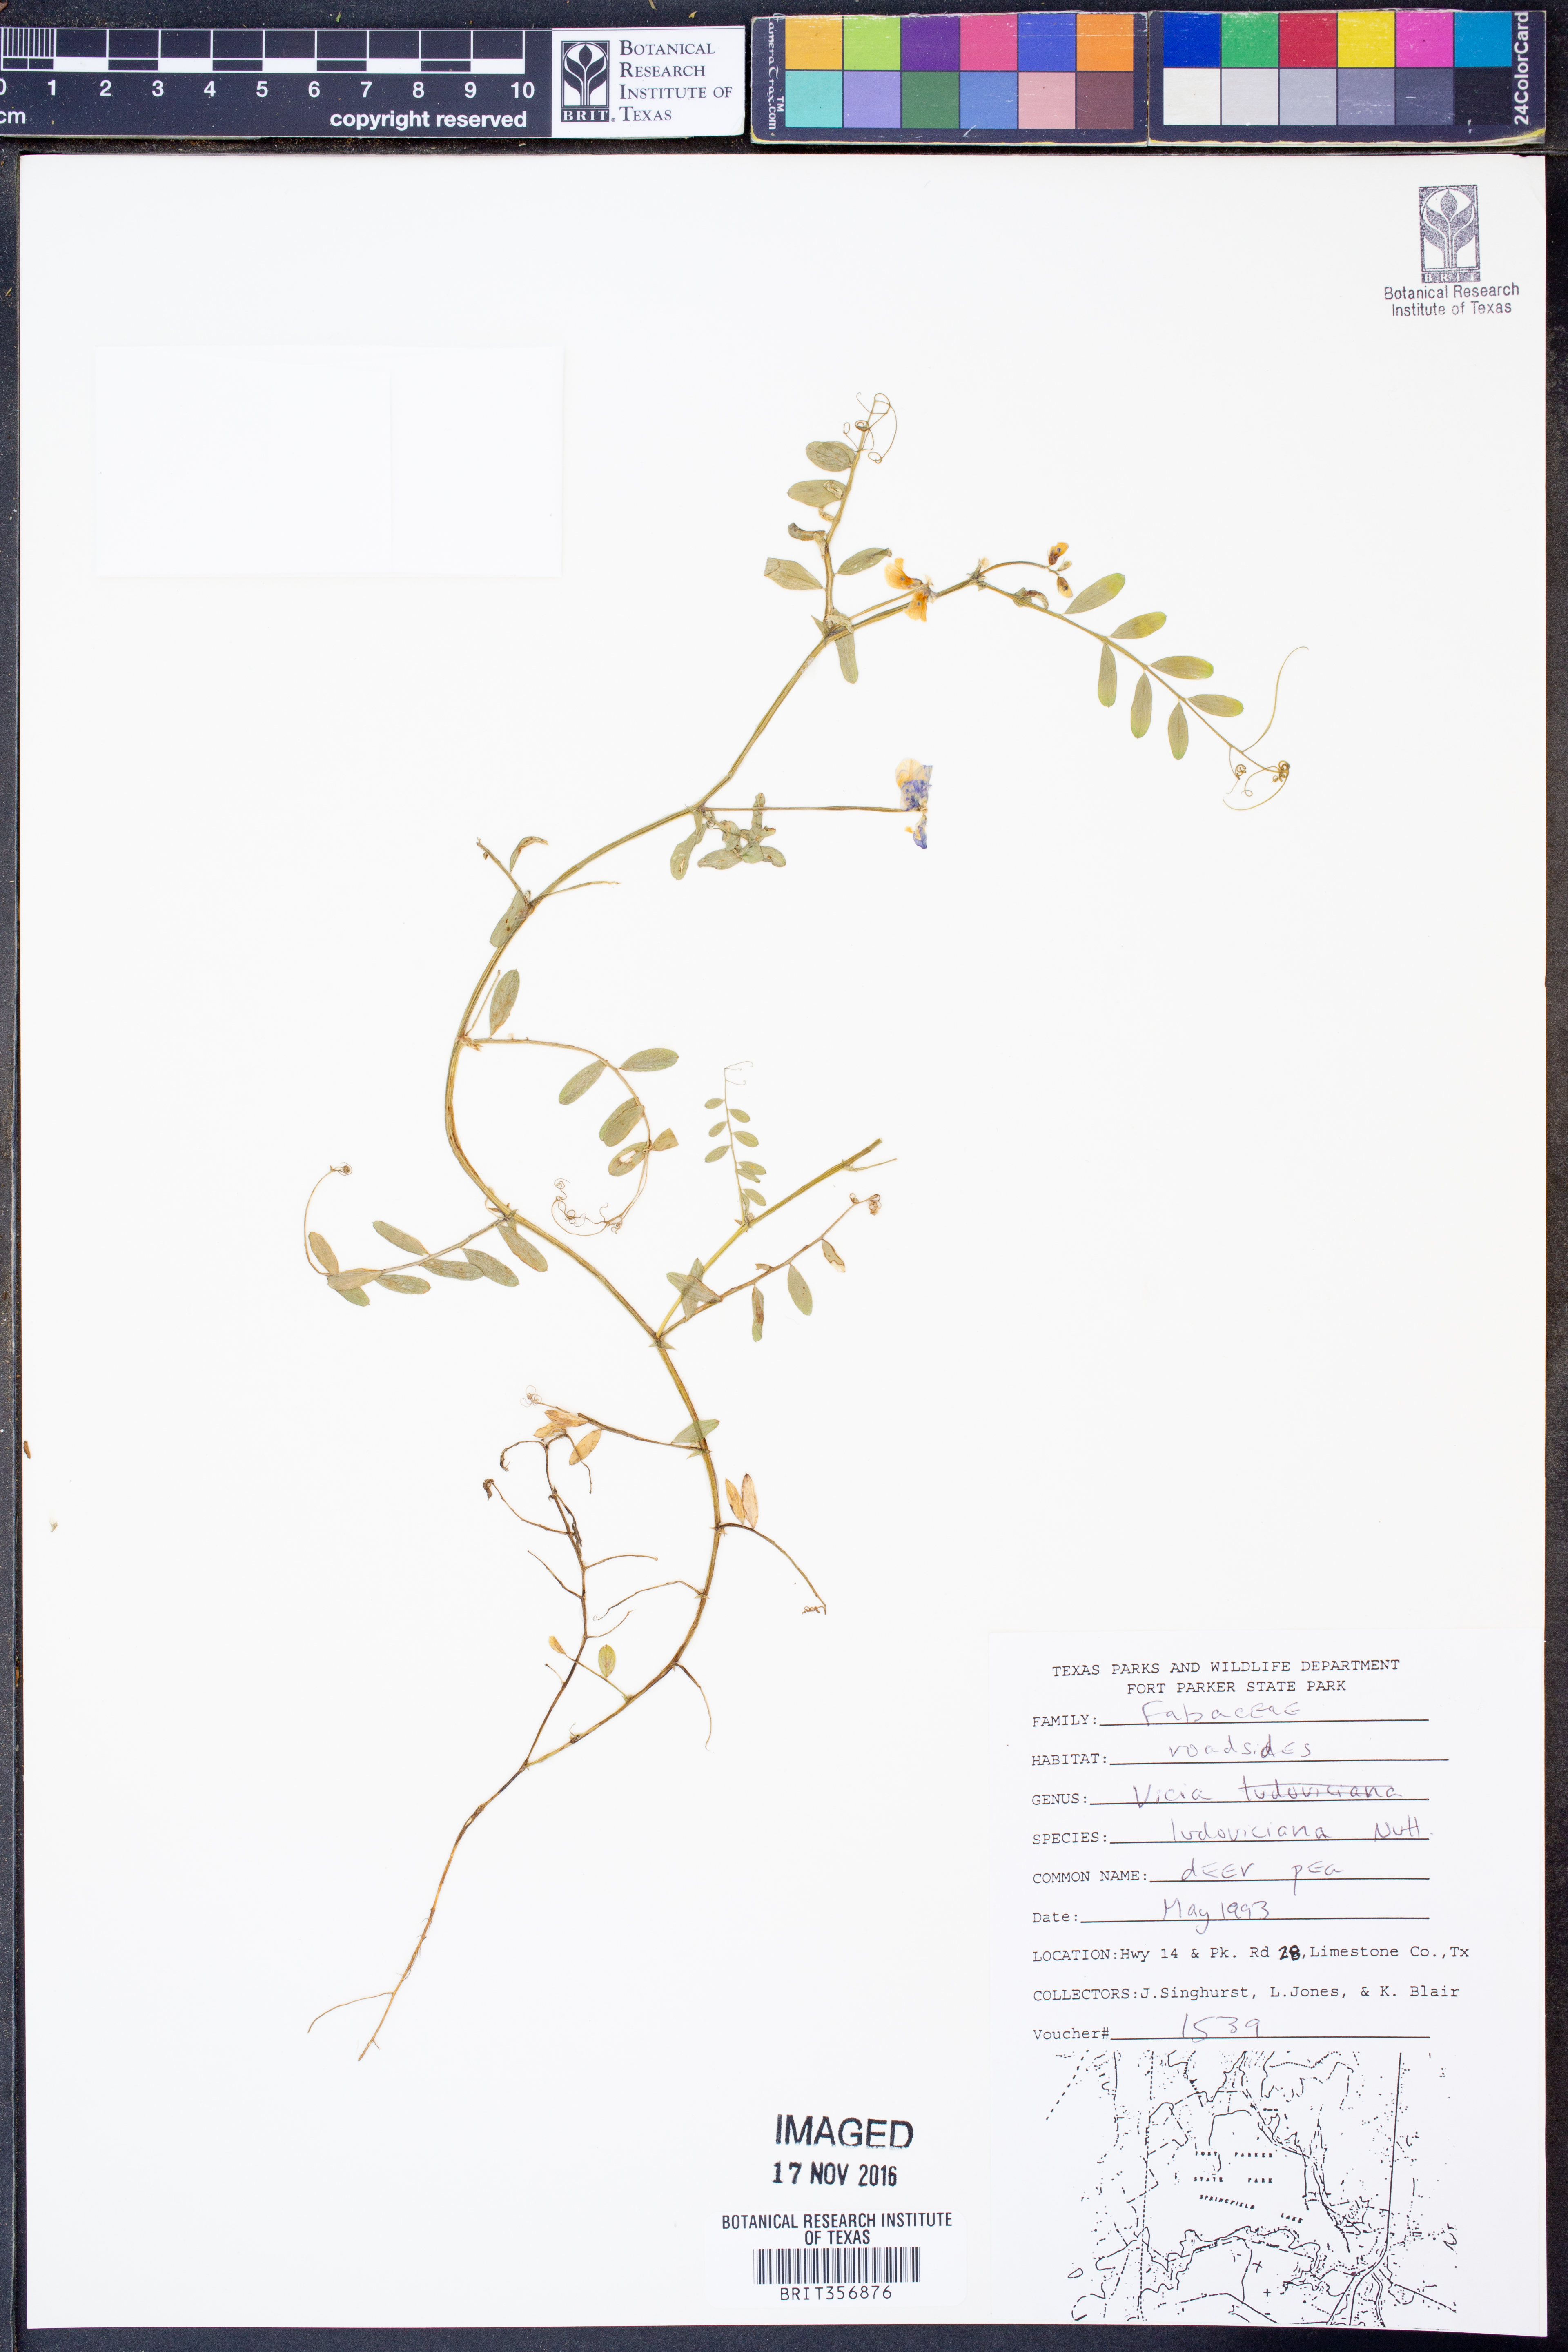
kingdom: Plantae
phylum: Tracheophyta
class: Magnoliopsida
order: Fabales
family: Fabaceae
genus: Vicia
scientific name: Vicia ludoviciana
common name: Louisiana vetch
